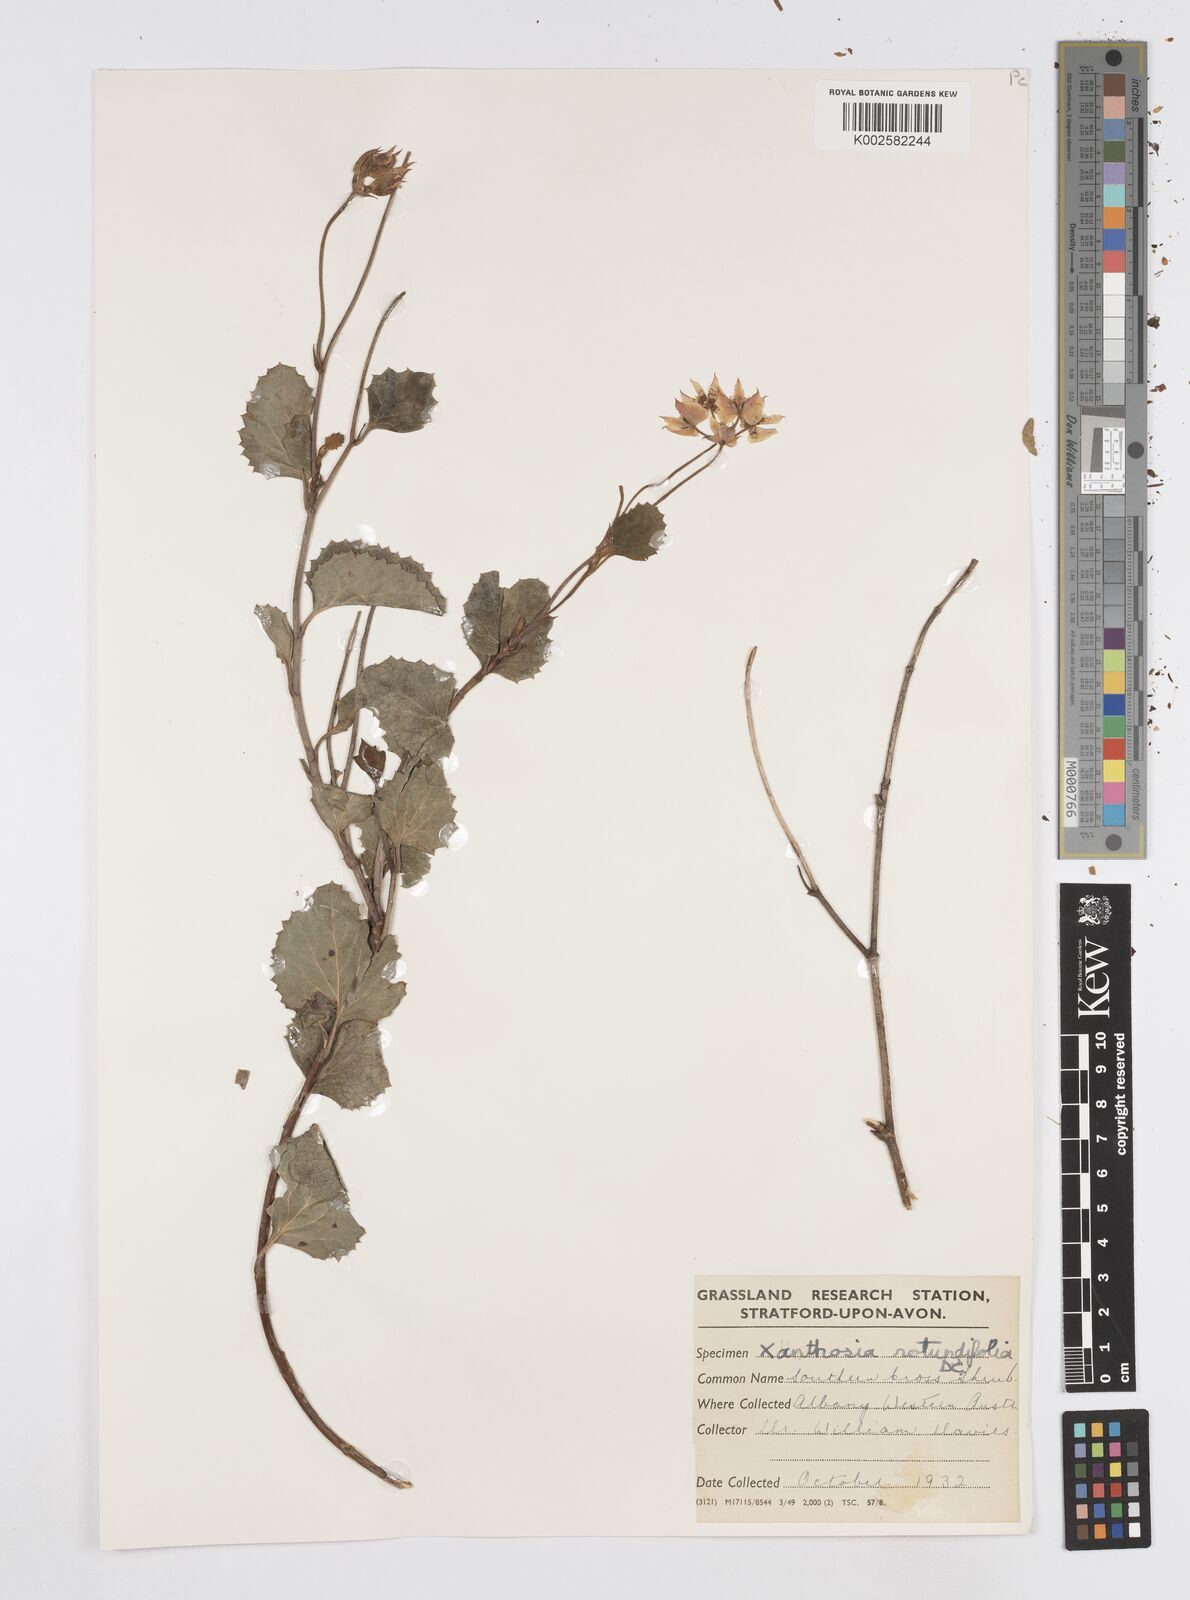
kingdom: Plantae
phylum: Tracheophyta
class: Magnoliopsida
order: Apiales
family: Apiaceae
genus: Xanthosia
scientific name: Xanthosia rotundifolia
